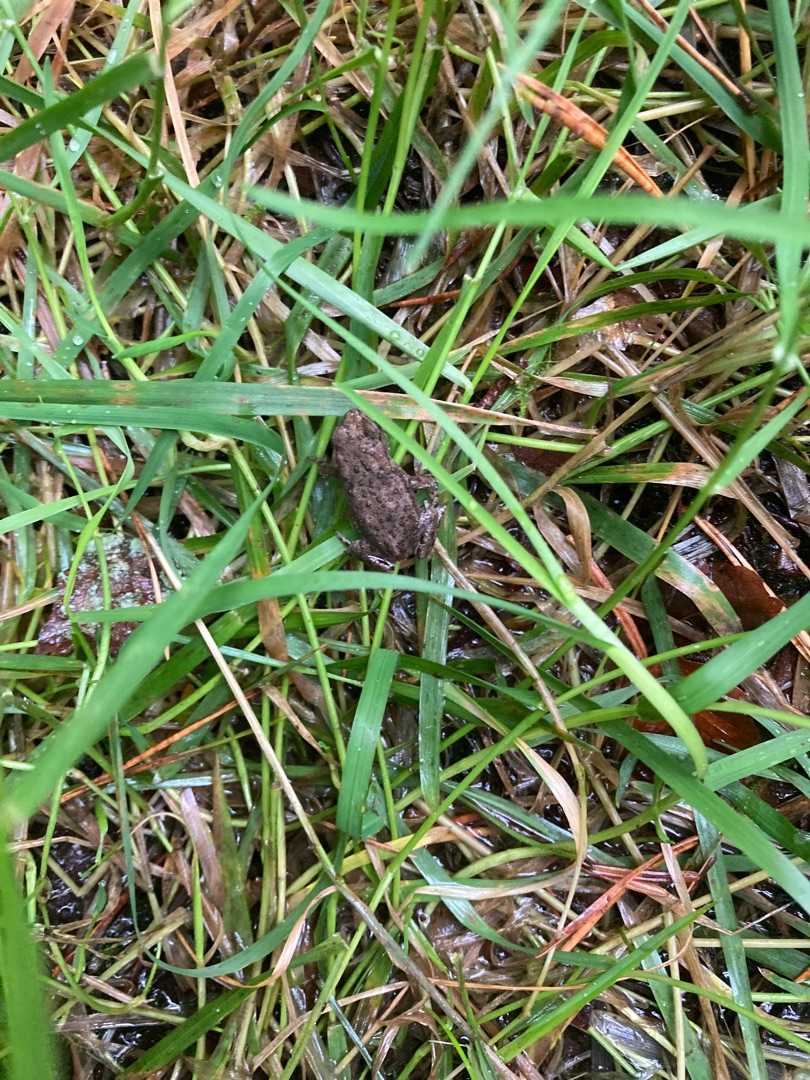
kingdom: Animalia
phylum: Chordata
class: Amphibia
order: Anura
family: Bufonidae
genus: Bufo
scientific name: Bufo bufo
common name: Skrubtudse
